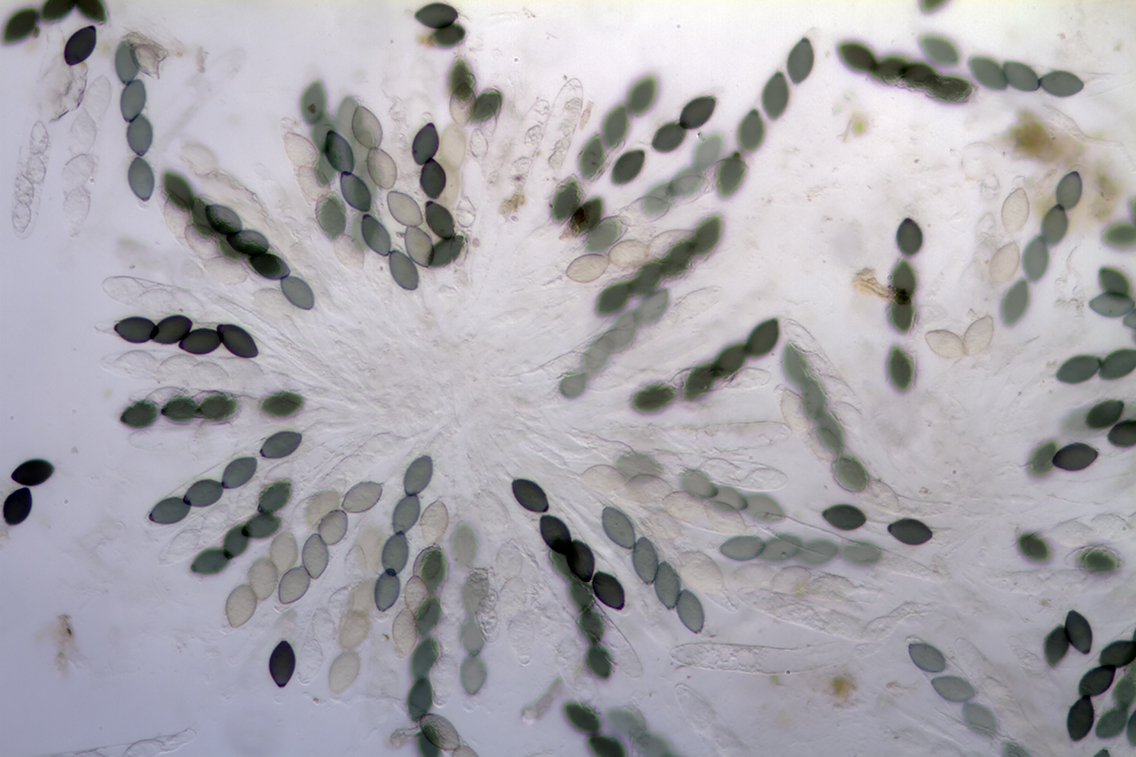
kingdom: Fungi
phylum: Ascomycota
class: Sordariomycetes
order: Sordariales
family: Neoschizotheciaceae
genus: Neoschizothecium
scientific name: Neoschizothecium tetrasporum
